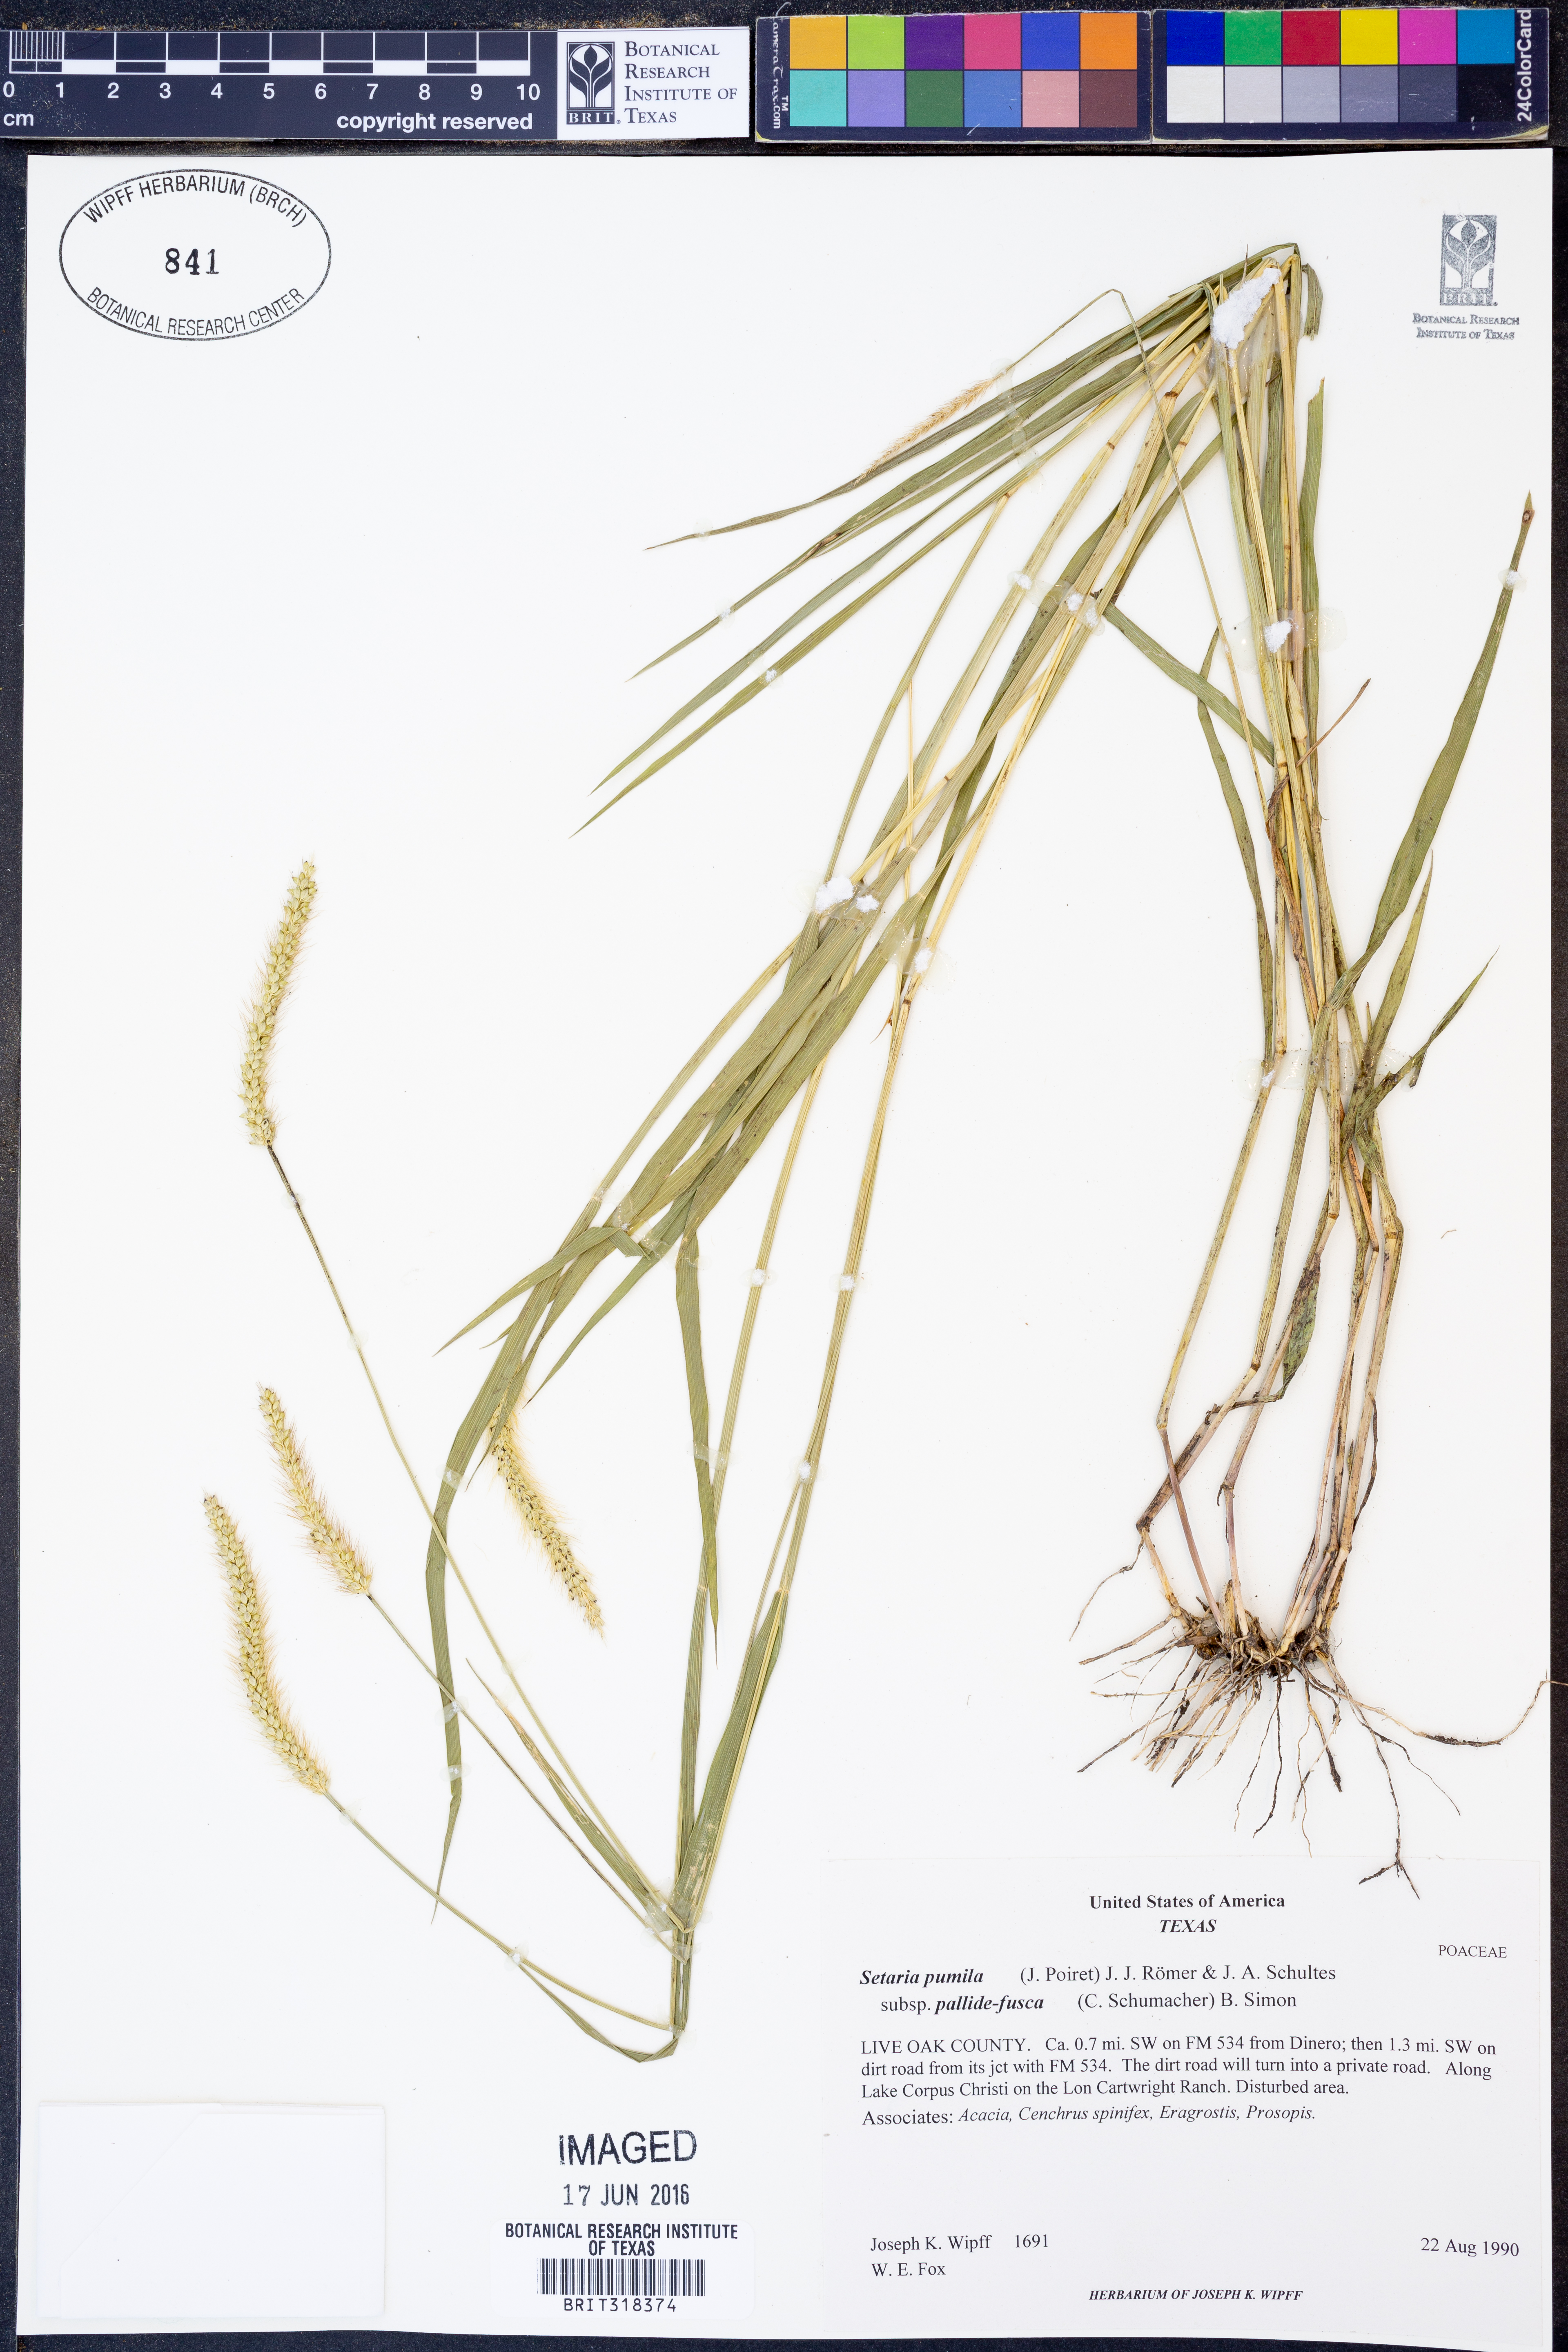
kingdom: Plantae
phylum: Tracheophyta
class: Liliopsida
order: Poales
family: Poaceae
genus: Setaria
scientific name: Setaria pumila
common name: Yellow bristle-grass
